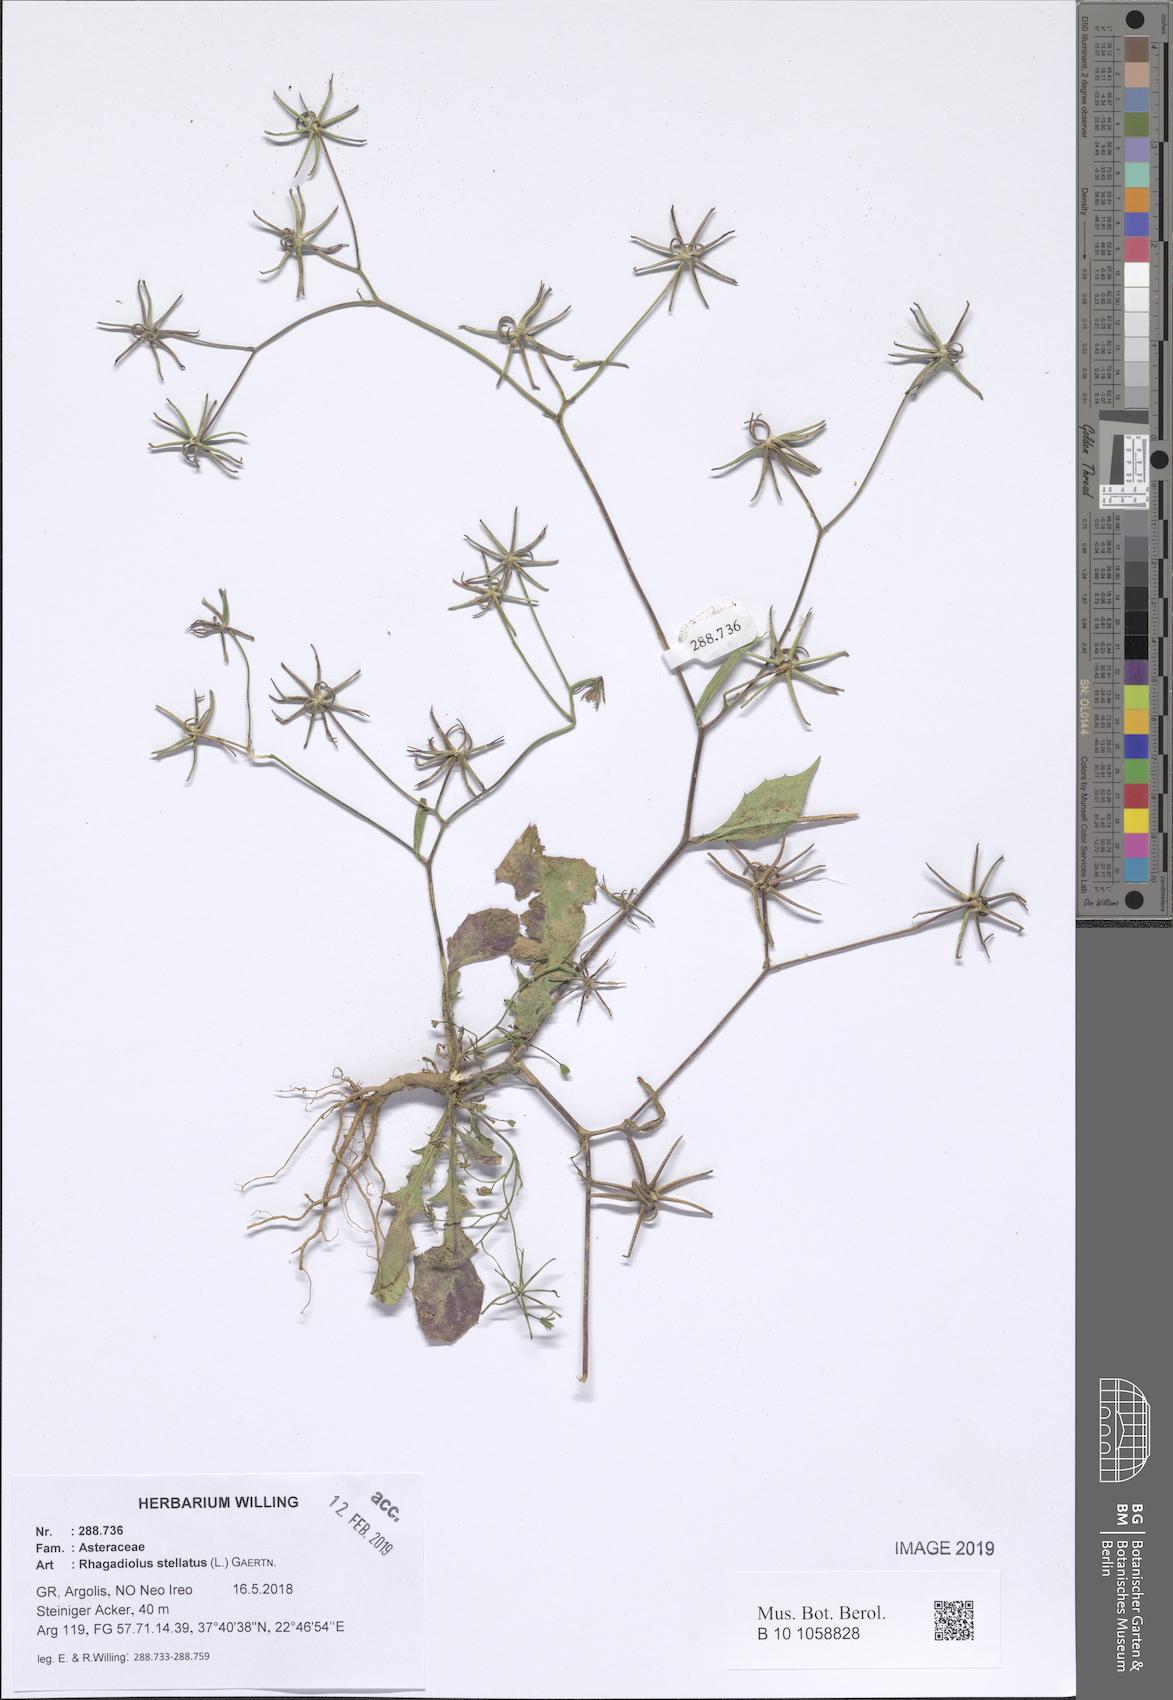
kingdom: Plantae
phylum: Tracheophyta
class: Magnoliopsida
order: Asterales
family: Asteraceae
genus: Rhagadiolus
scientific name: Rhagadiolus stellatus
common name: Star hawkbit
